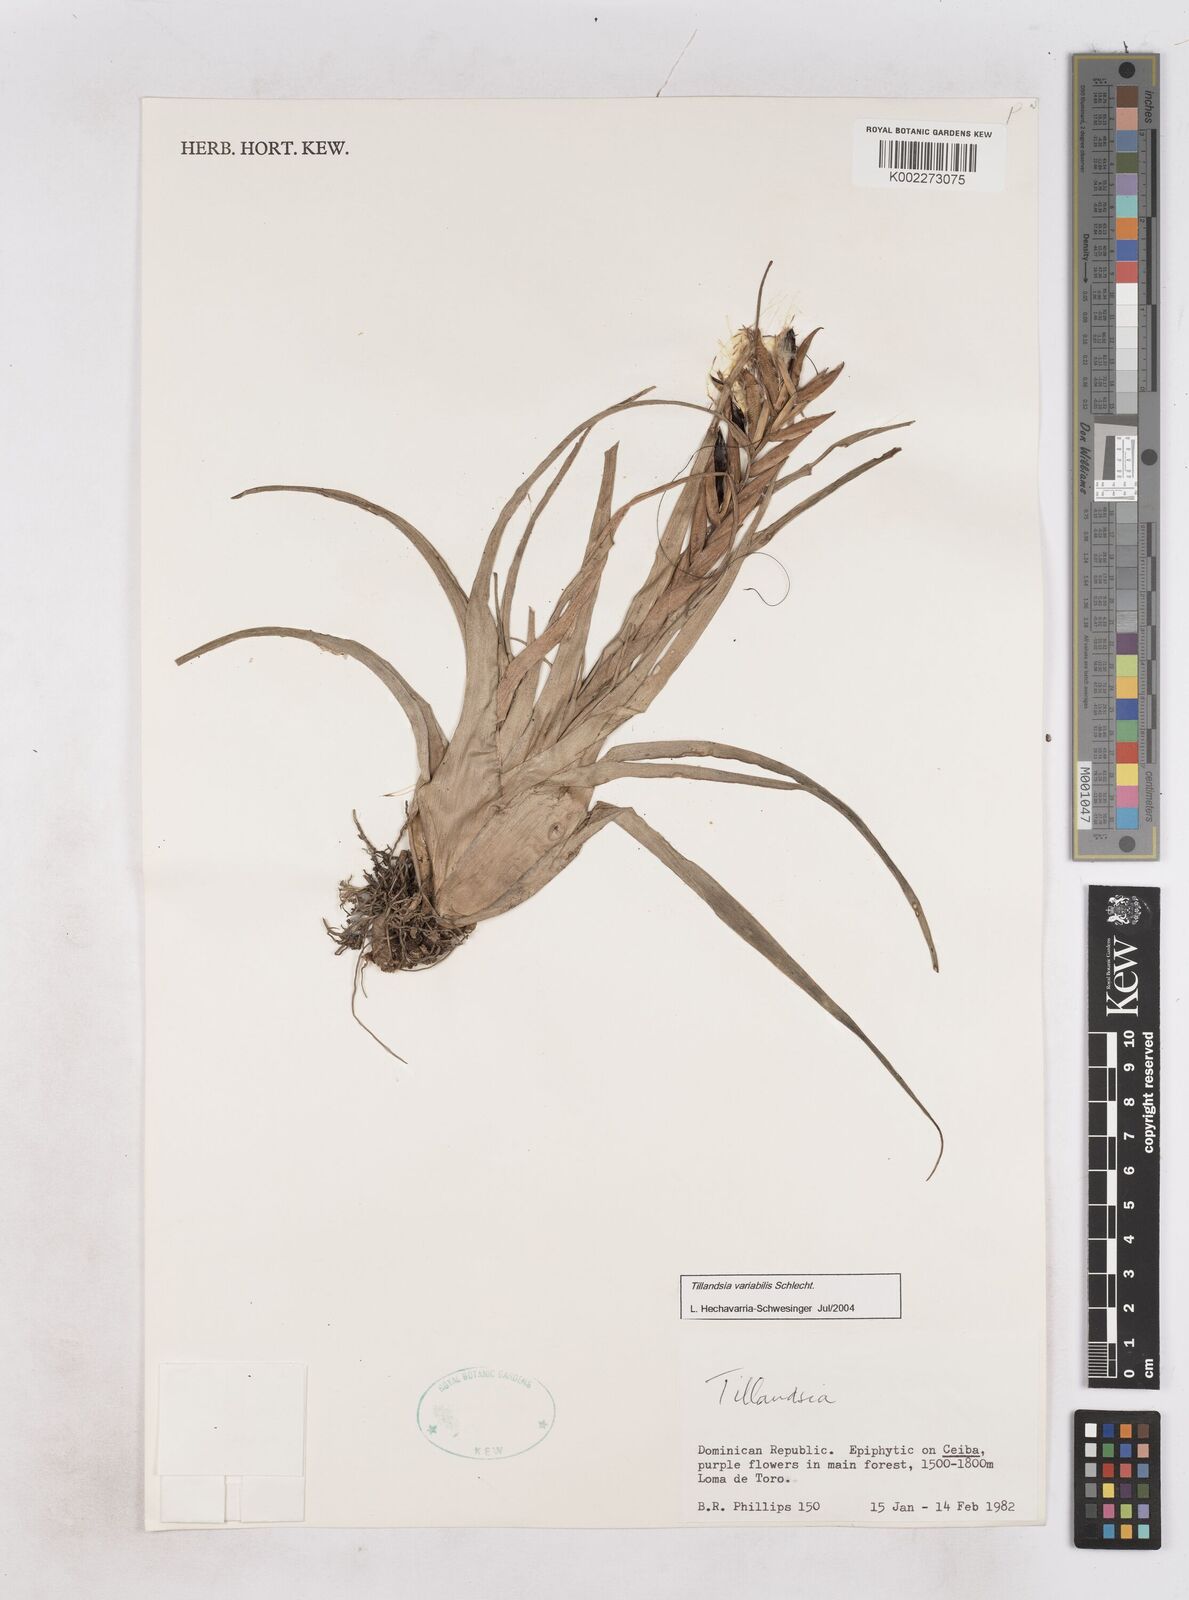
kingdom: Plantae
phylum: Tracheophyta
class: Liliopsida
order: Poales
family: Bromeliaceae
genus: Tillandsia
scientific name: Tillandsia variabilis
